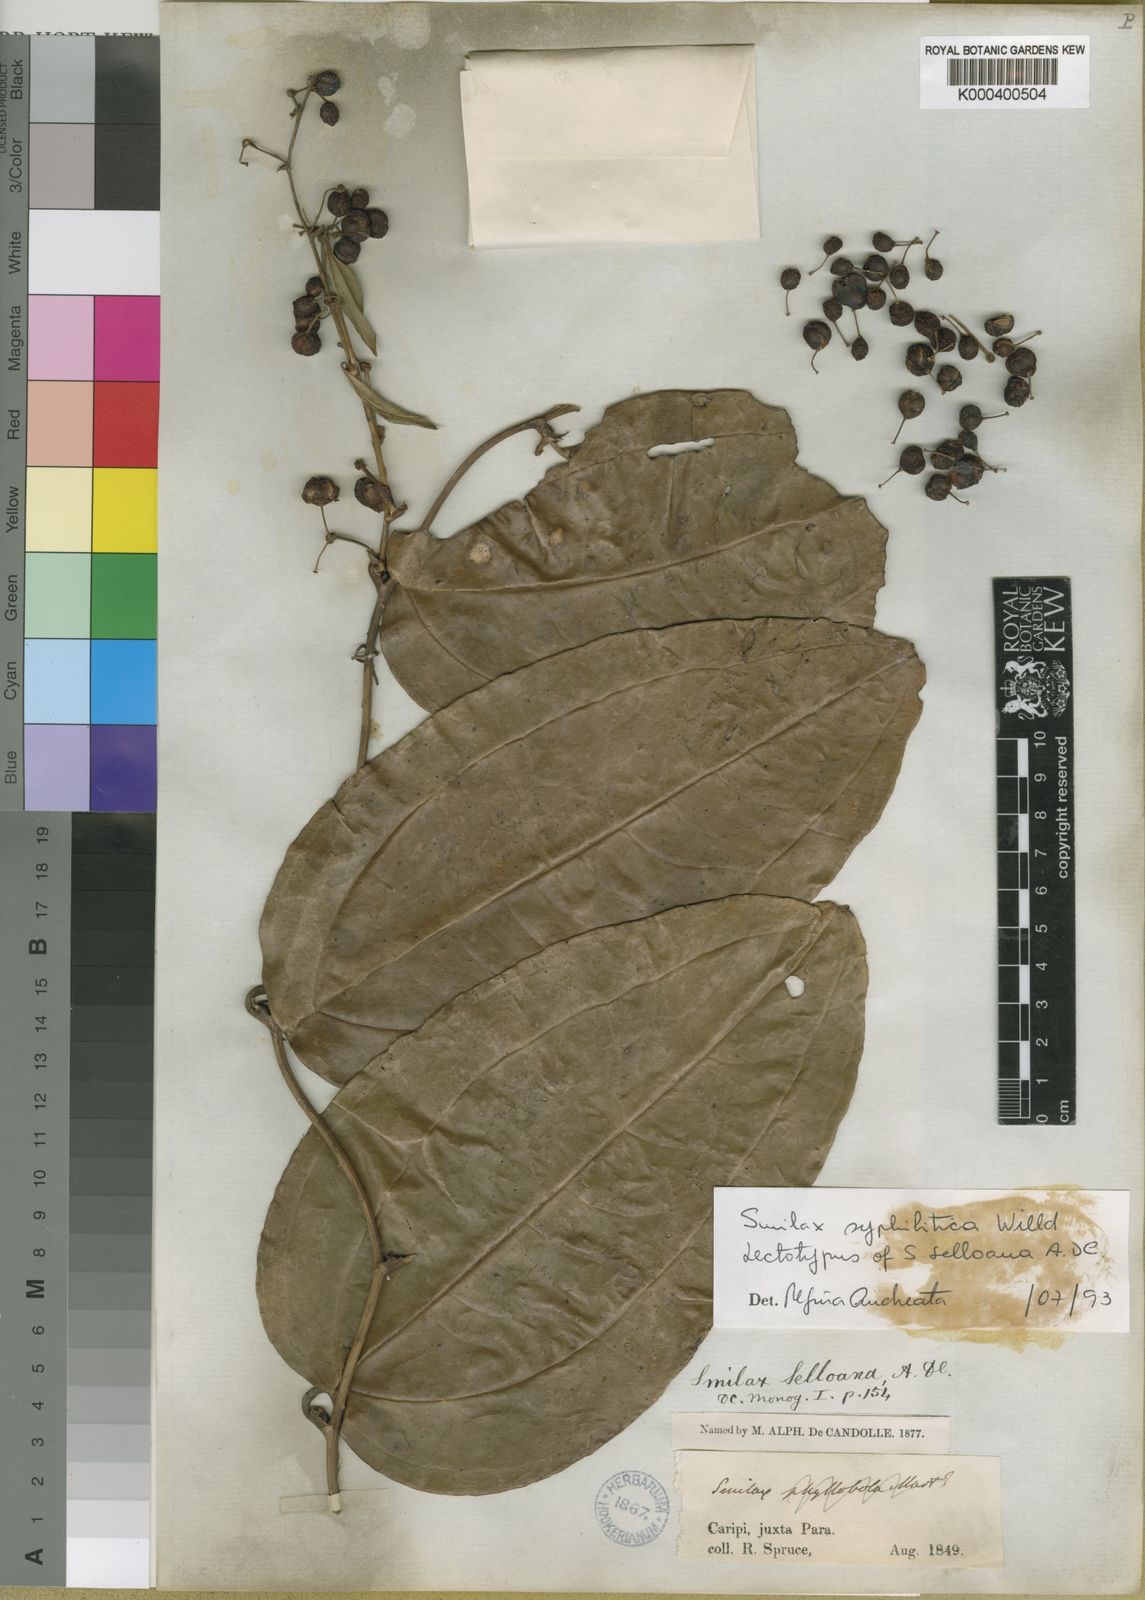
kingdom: Plantae
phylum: Tracheophyta
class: Liliopsida
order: Liliales
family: Smilacaceae
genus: Smilax
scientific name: Smilax siphilitica
